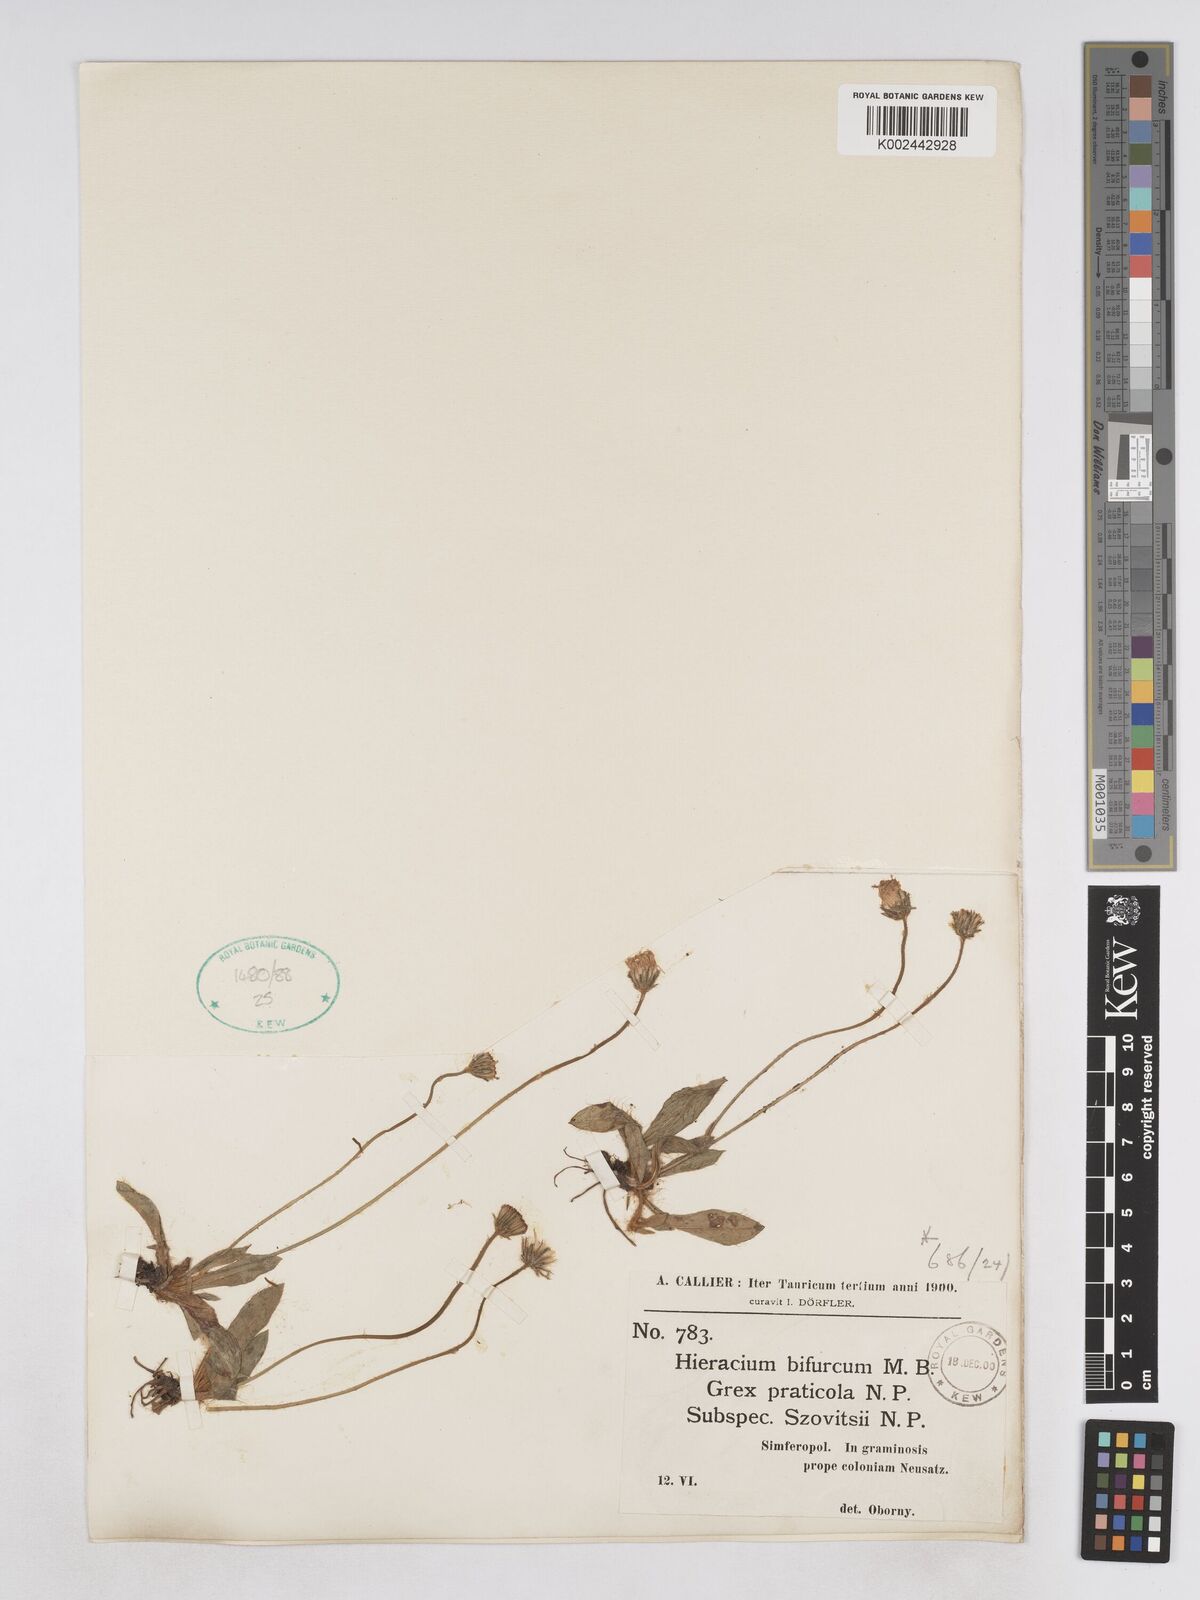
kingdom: Plantae
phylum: Tracheophyta
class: Magnoliopsida
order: Asterales
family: Asteraceae
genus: Pilosella
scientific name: Pilosella bifurca
